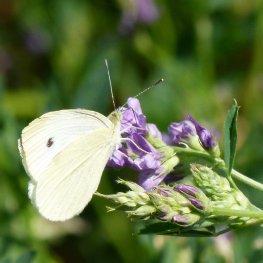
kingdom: Animalia
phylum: Arthropoda
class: Insecta
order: Lepidoptera
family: Pieridae
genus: Pieris
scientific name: Pieris rapae
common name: Cabbage White
